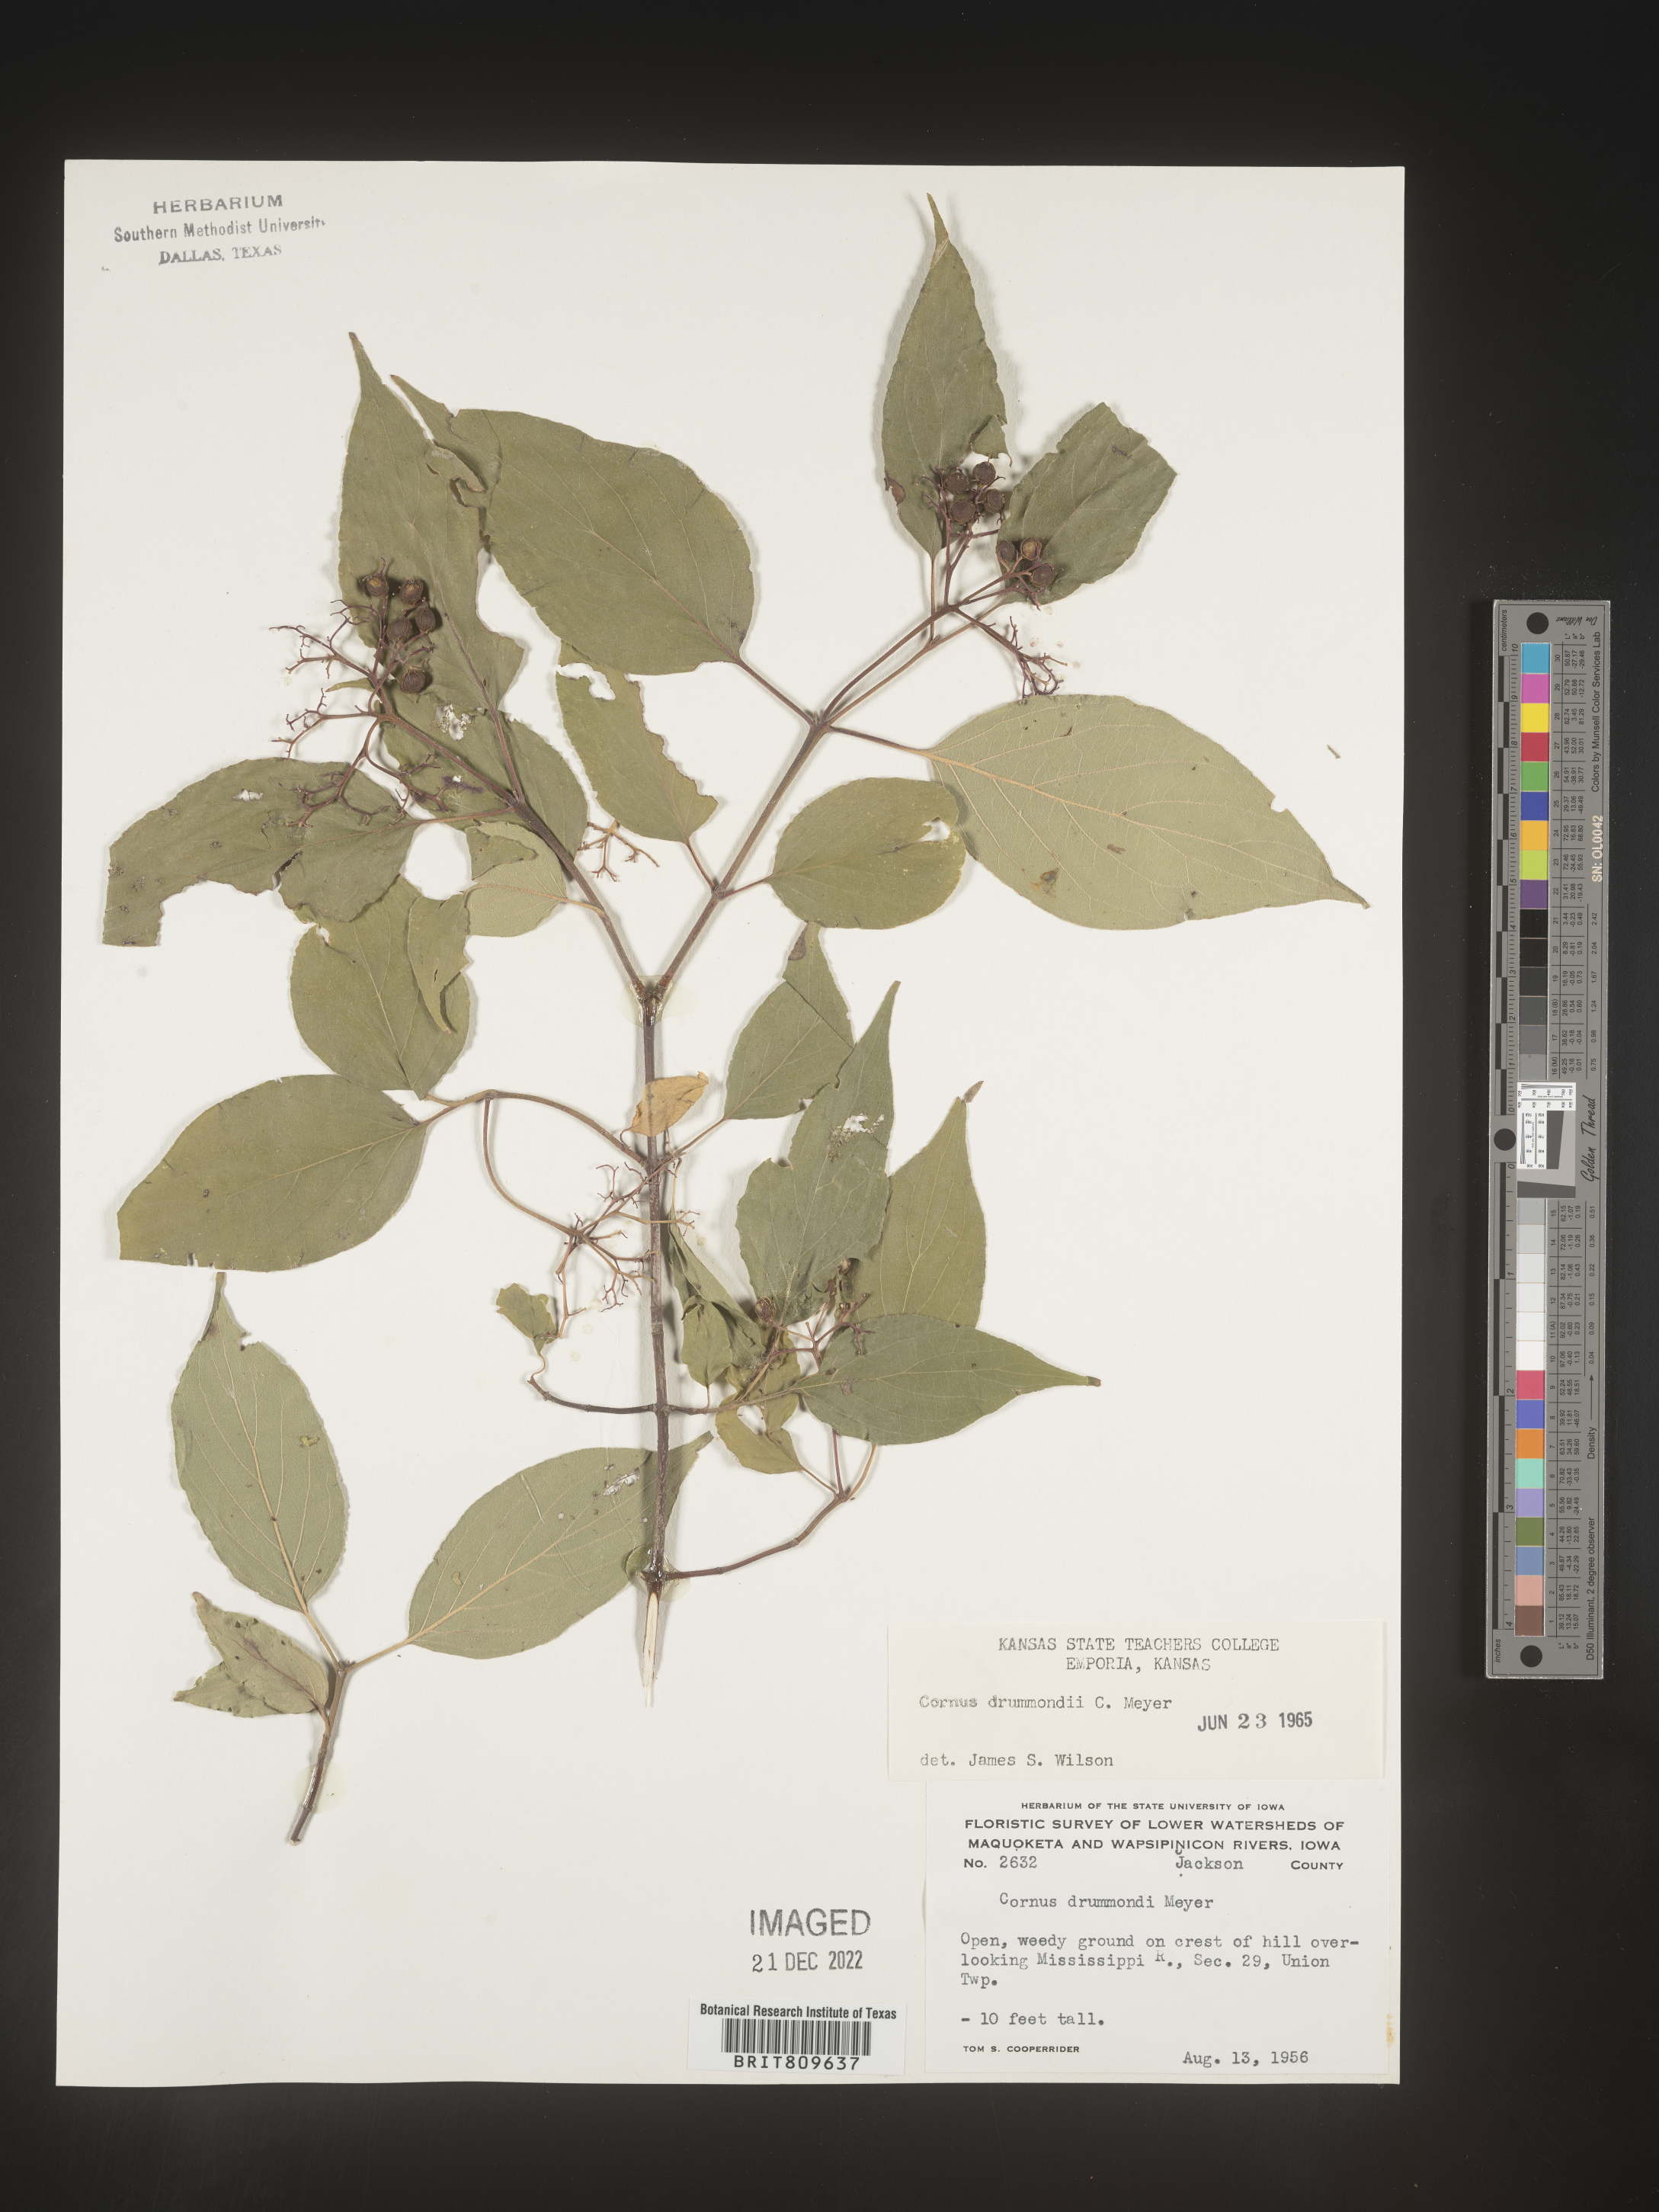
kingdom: Plantae
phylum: Tracheophyta
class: Magnoliopsida
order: Cornales
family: Cornaceae
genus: Cornus
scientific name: Cornus drummondii
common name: Rough-leaf dogwood
